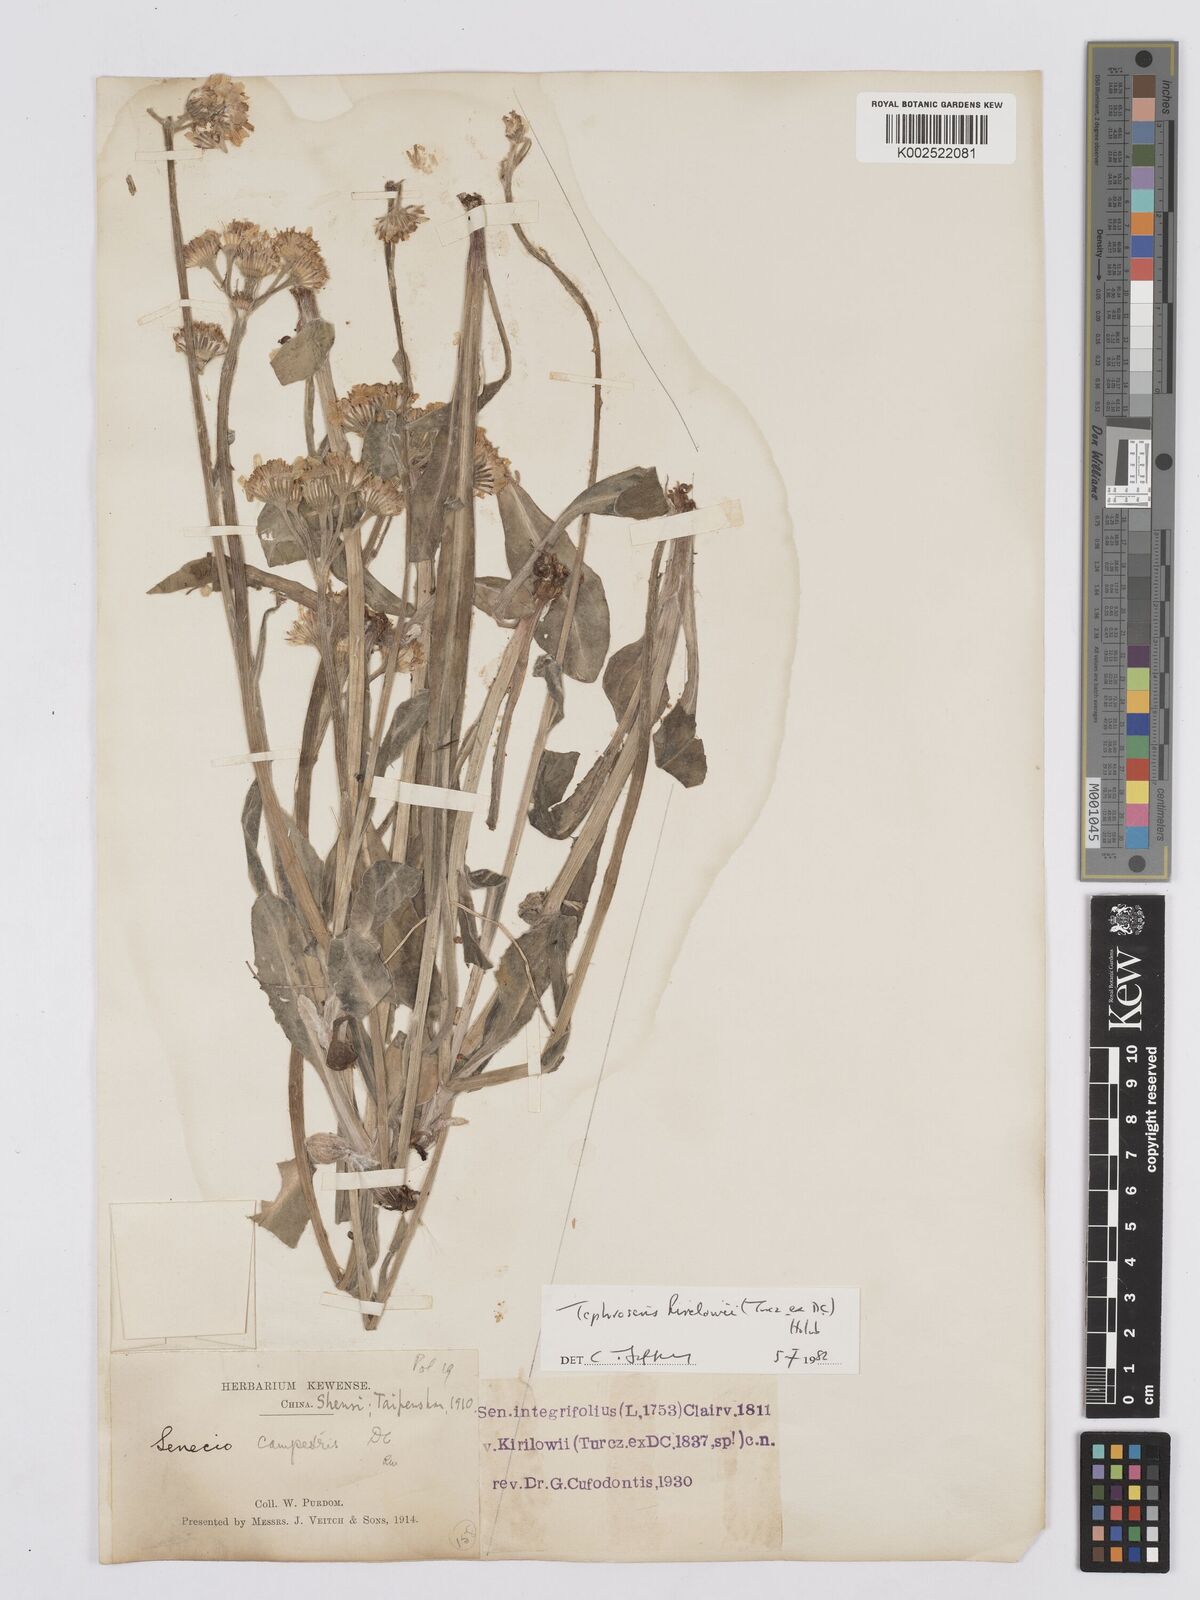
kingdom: Plantae
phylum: Tracheophyta
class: Magnoliopsida
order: Asterales
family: Asteraceae
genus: Tephroseris
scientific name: Tephroseris kirilowii
